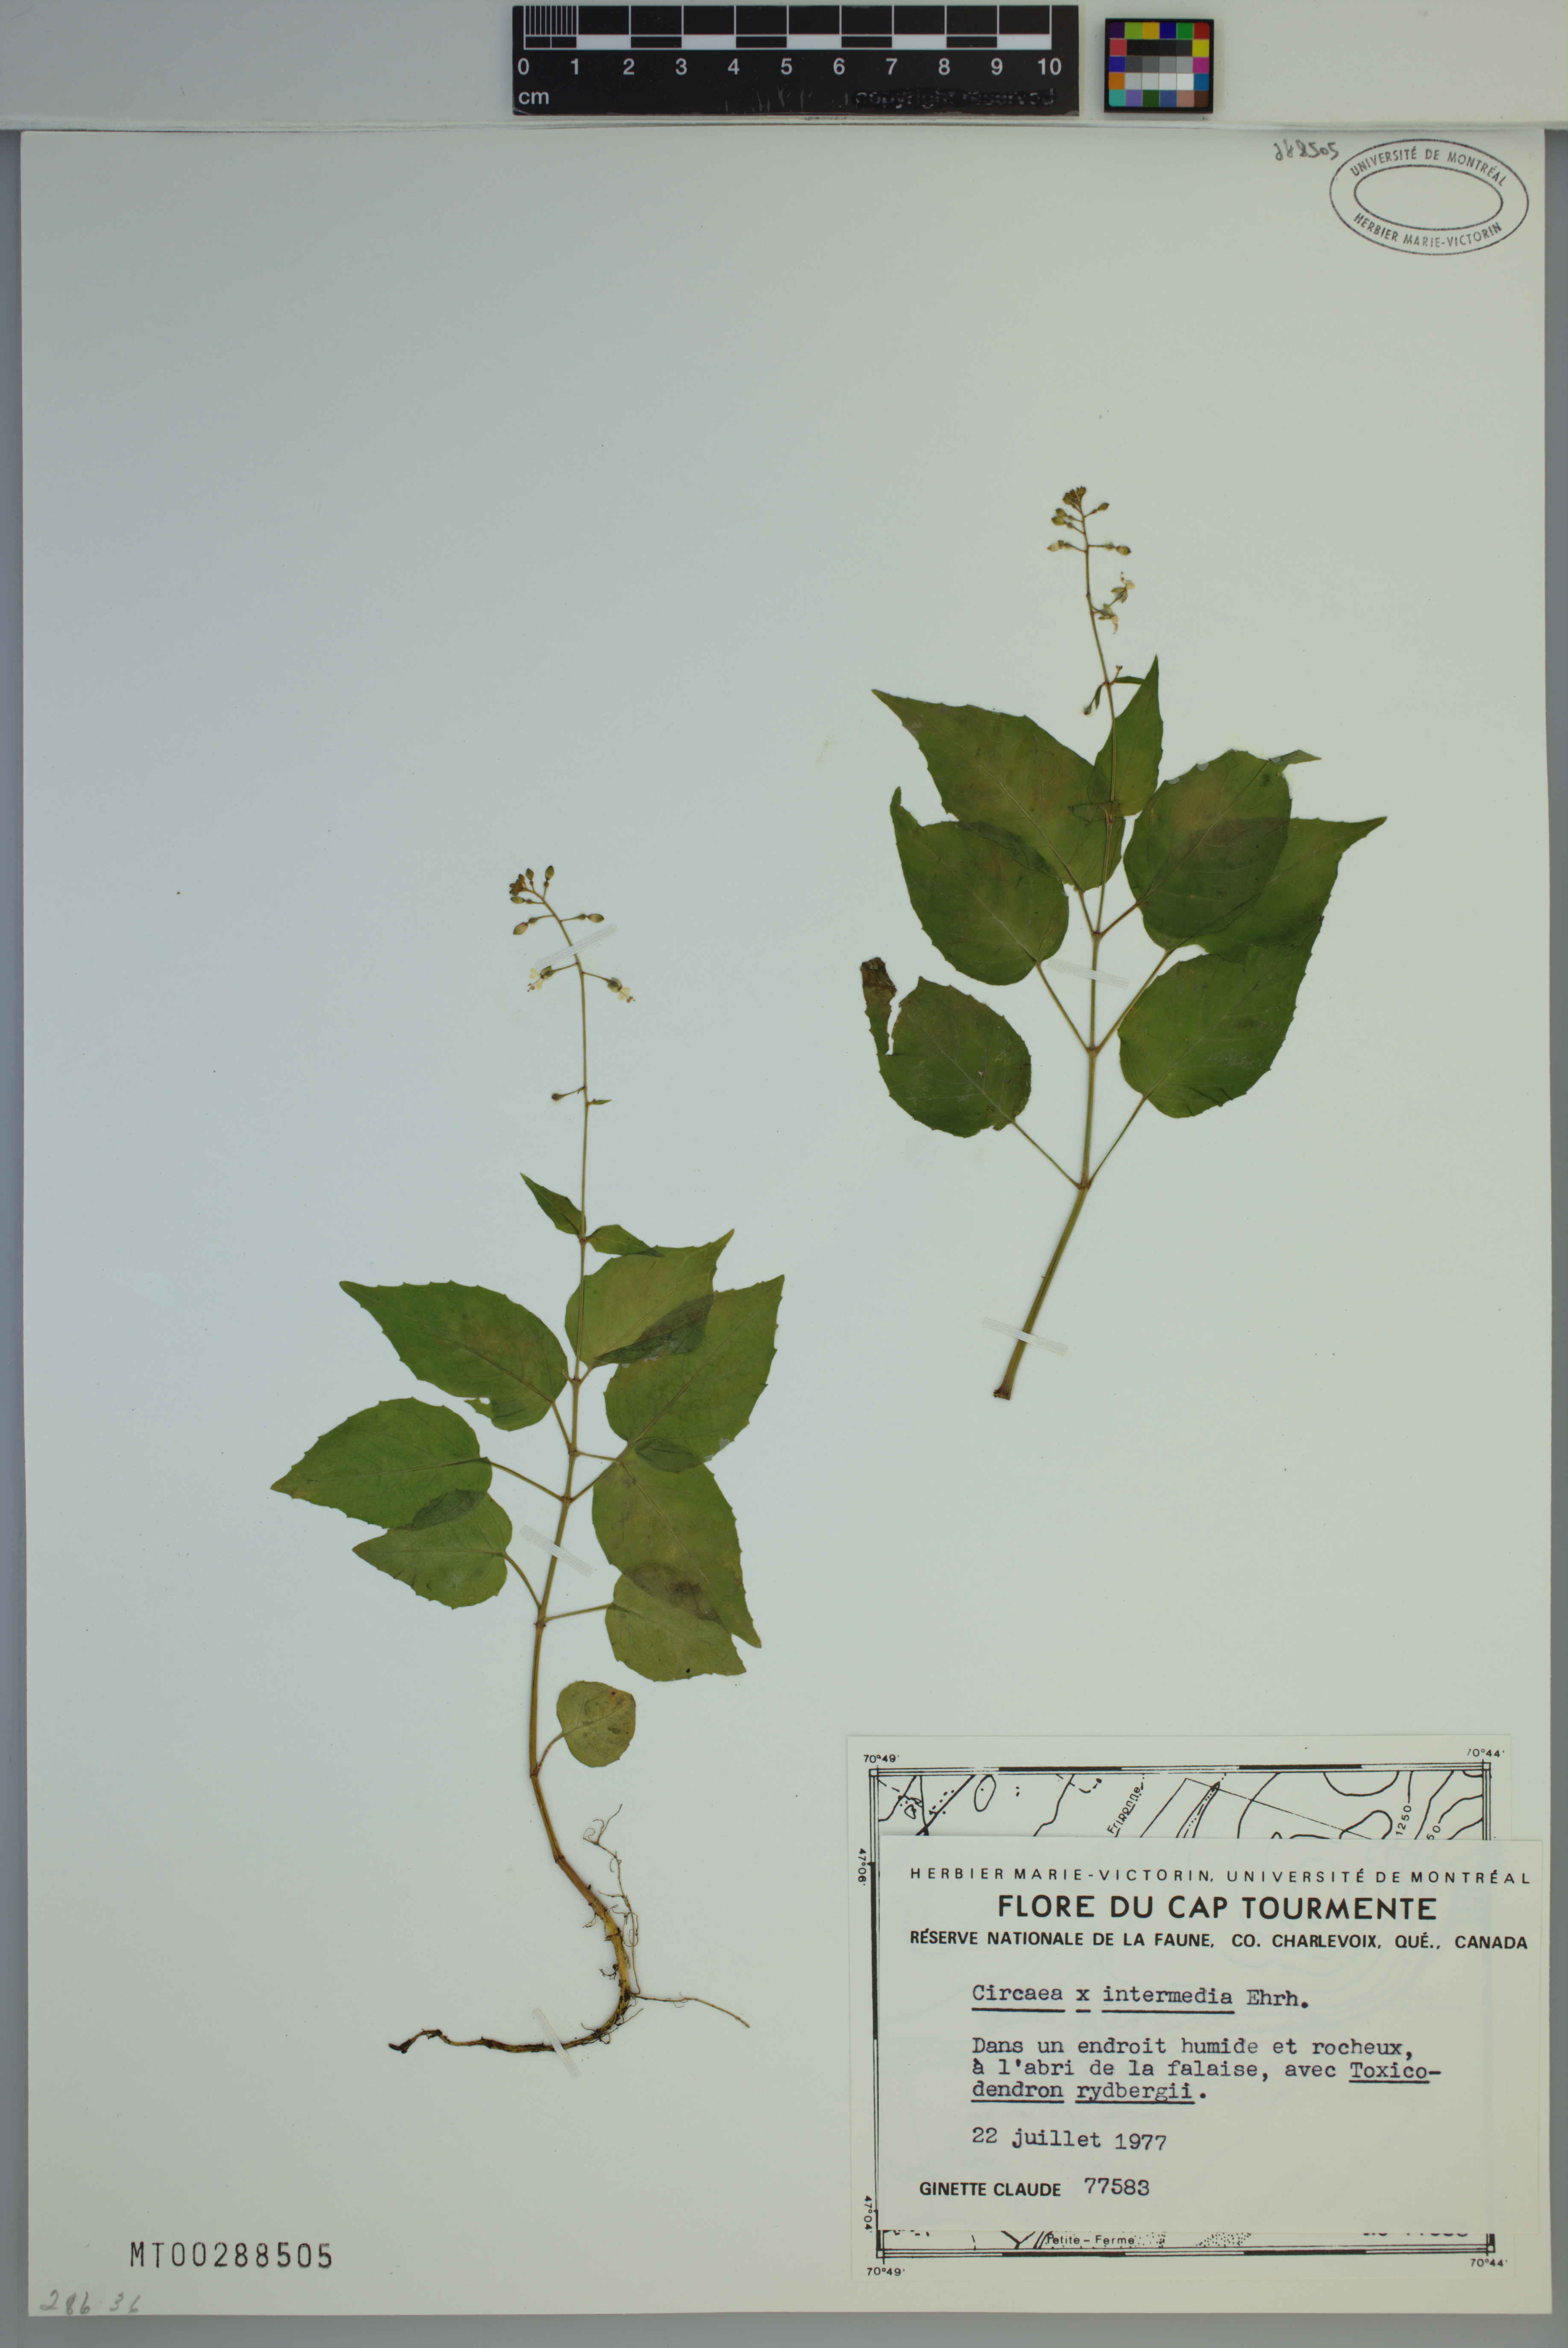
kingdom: Plantae
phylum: Tracheophyta
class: Magnoliopsida
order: Myrtales
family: Onagraceae
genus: Circaea
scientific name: Circaea sterilis
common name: Intermediate enchanter's nightshade
